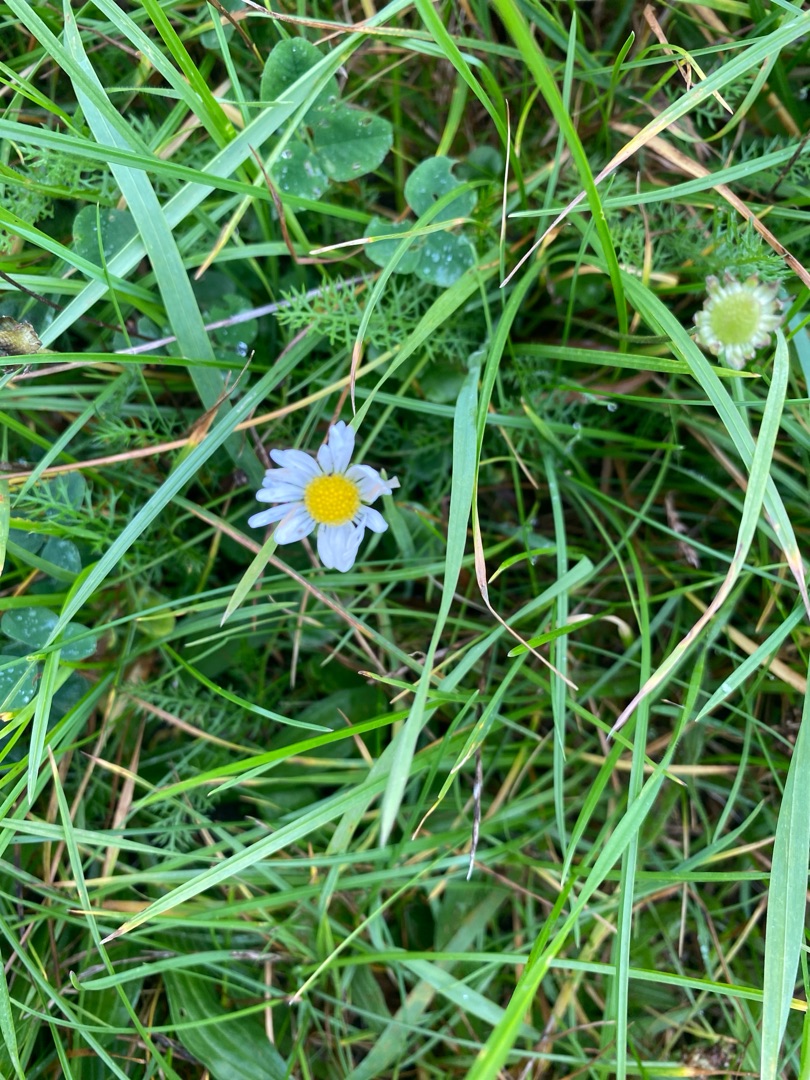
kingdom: Plantae
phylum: Tracheophyta
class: Magnoliopsida
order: Asterales
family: Asteraceae
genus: Bellis
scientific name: Bellis perennis
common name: Tusindfryd
